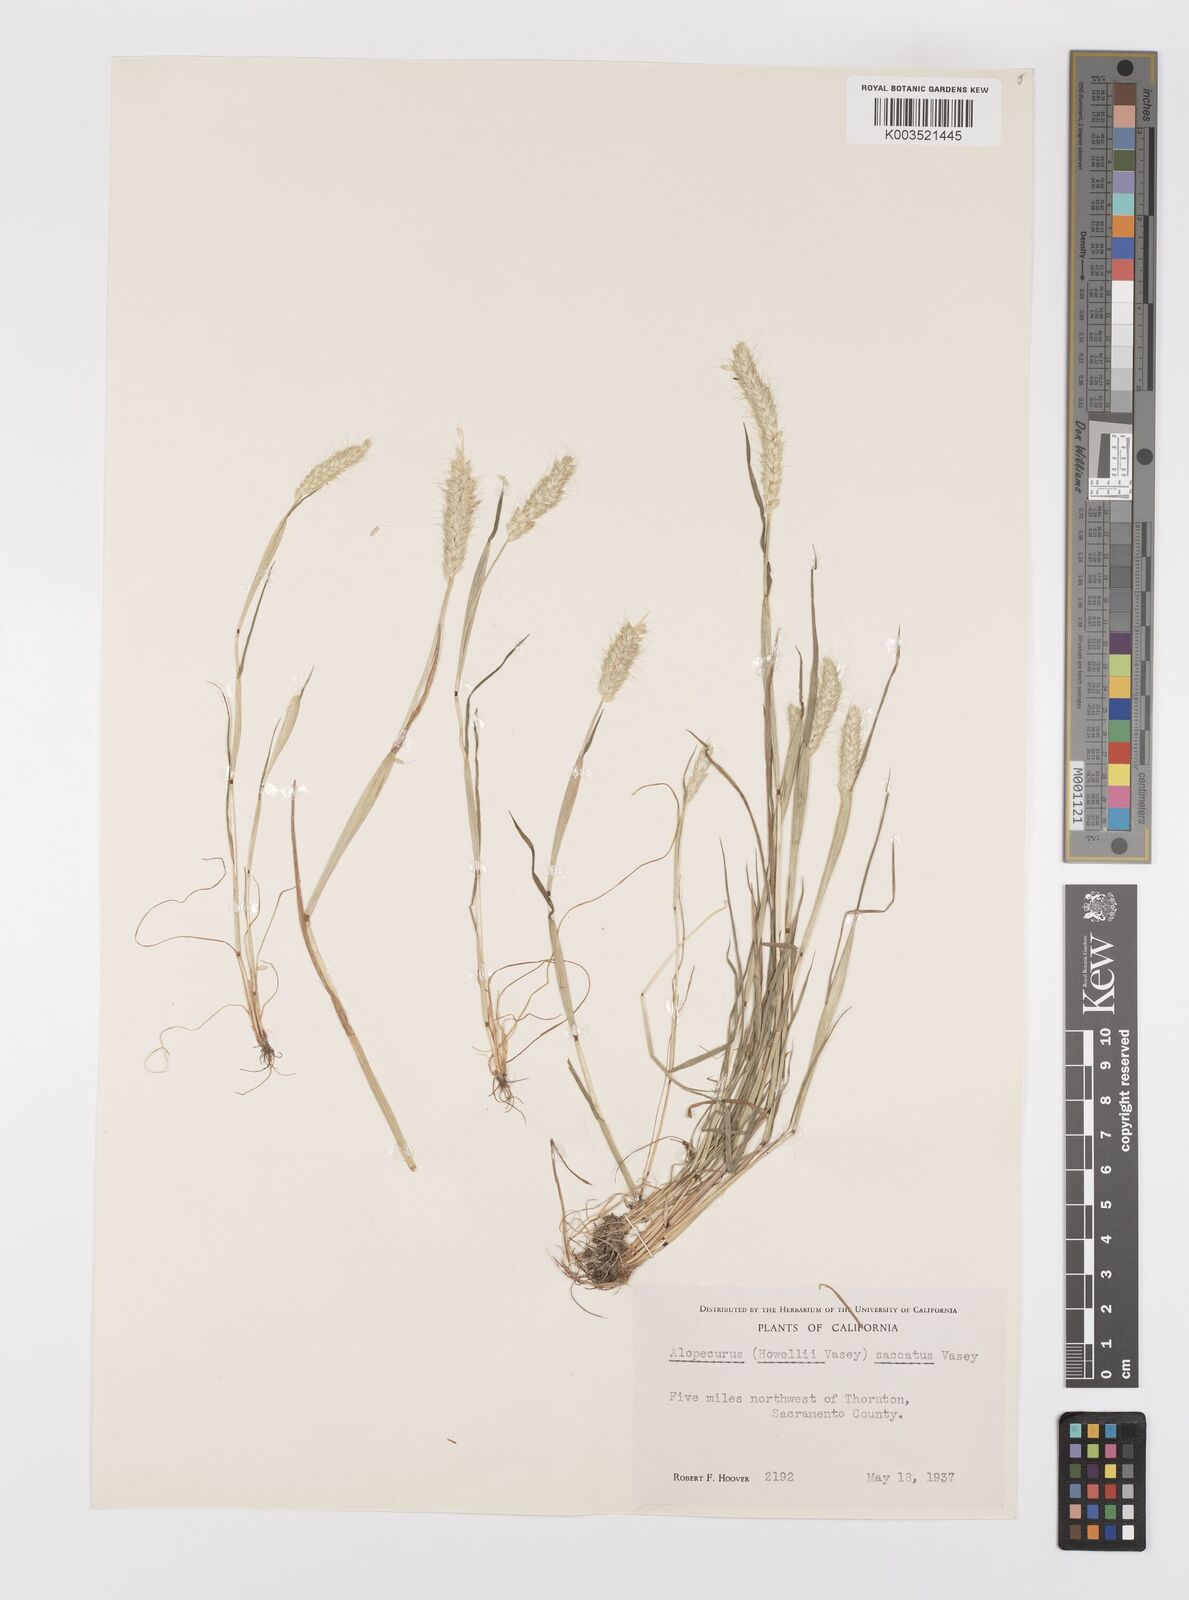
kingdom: Plantae
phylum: Tracheophyta
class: Liliopsida
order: Poales
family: Poaceae
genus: Alopecurus
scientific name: Alopecurus saccatus
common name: Pacific foxtail
